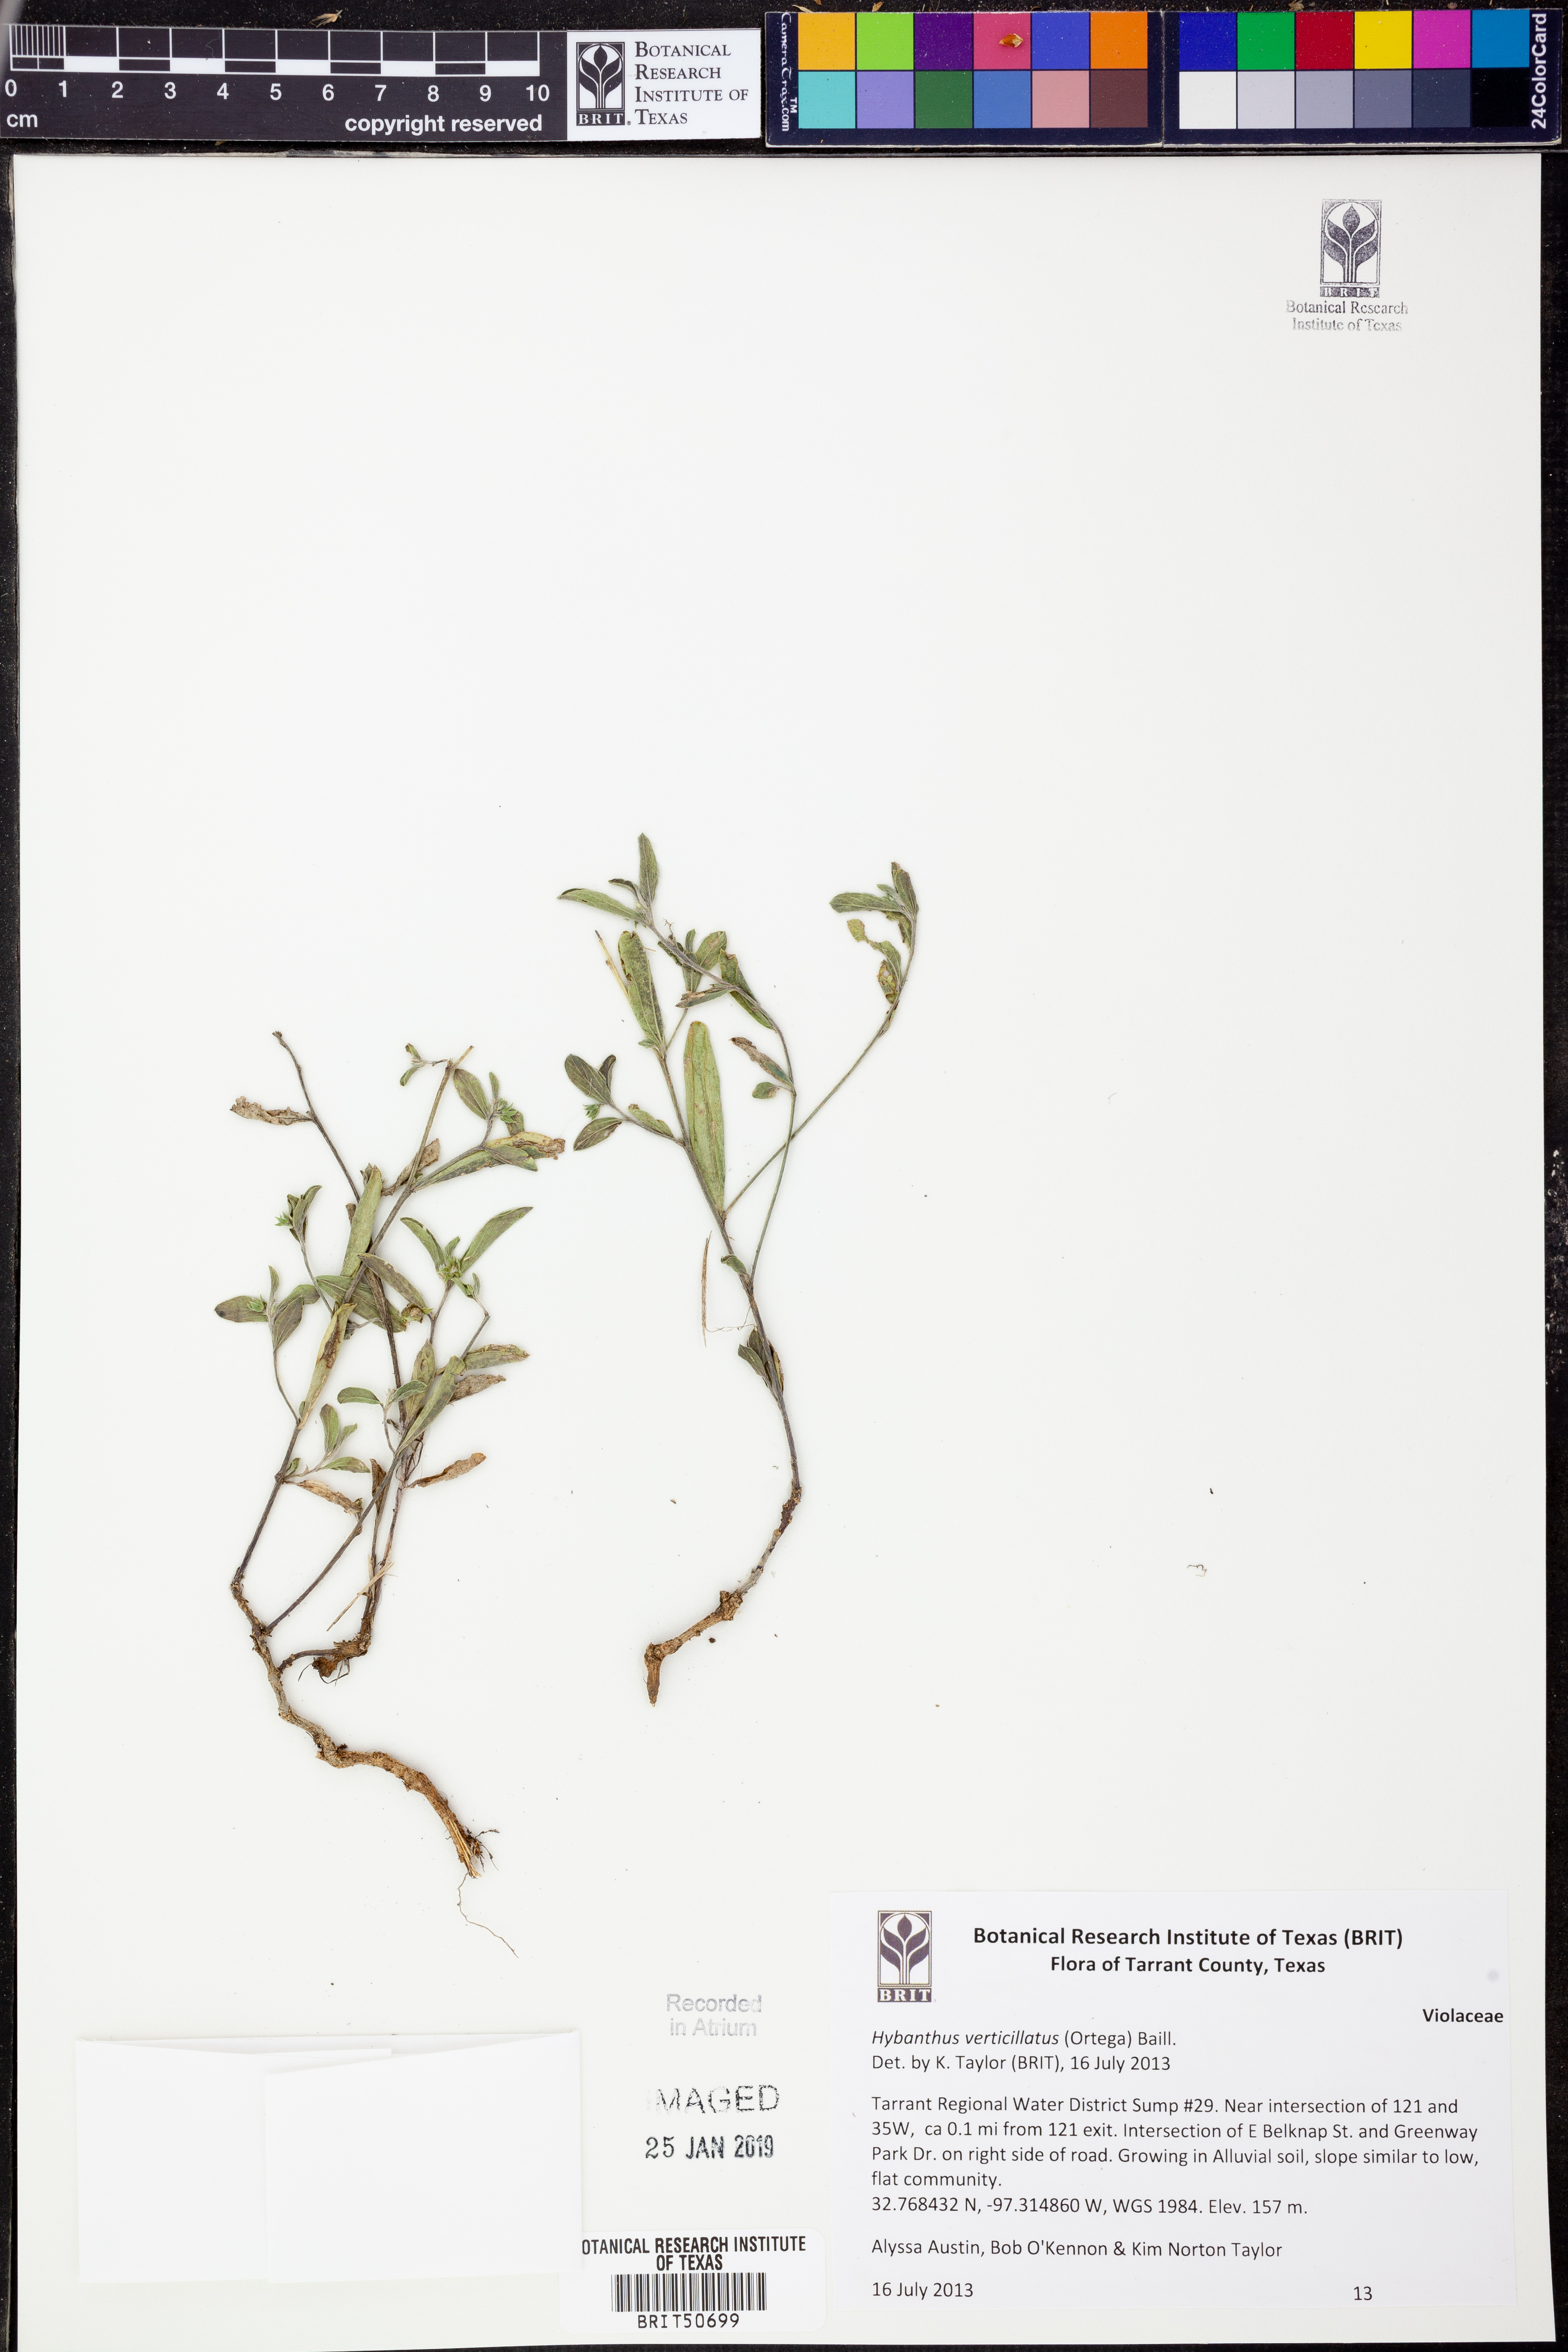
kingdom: Plantae
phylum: Tracheophyta
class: Magnoliopsida
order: Malpighiales
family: Violaceae
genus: Pombalia
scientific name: Pombalia verticillata
